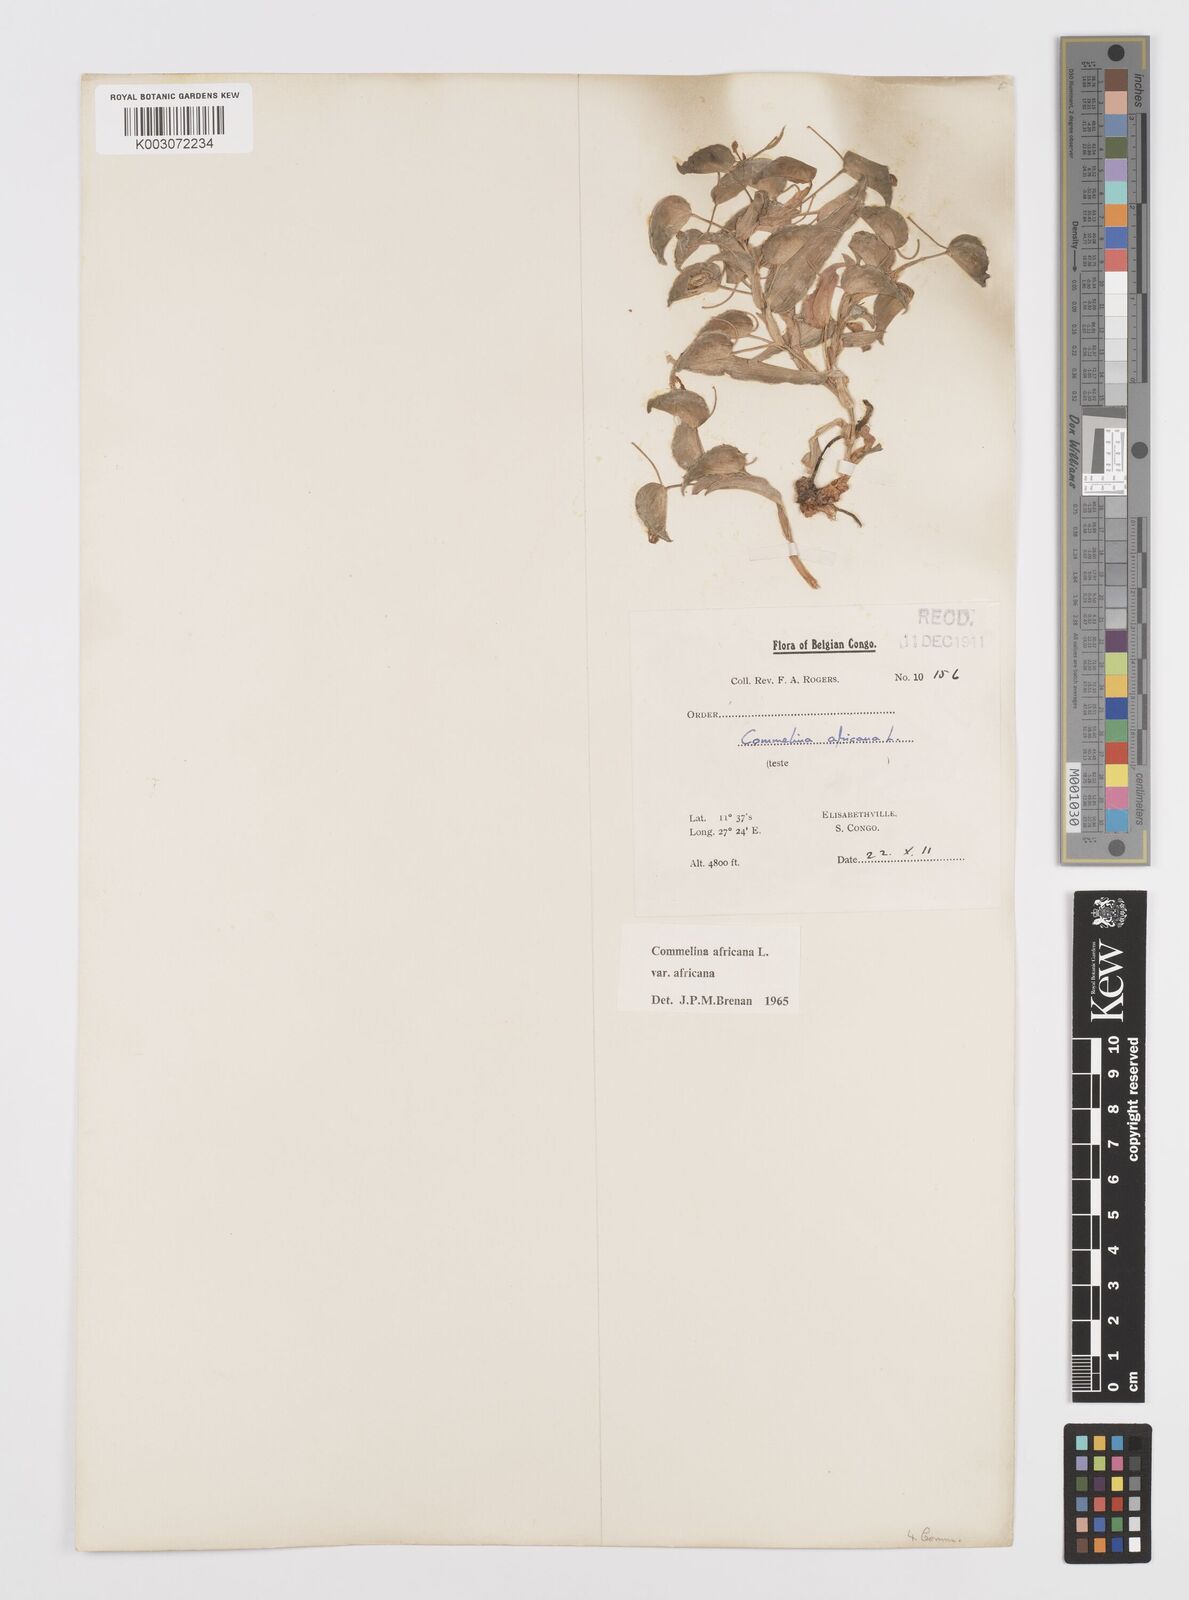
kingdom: Plantae
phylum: Tracheophyta
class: Liliopsida
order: Commelinales
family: Commelinaceae
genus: Commelina
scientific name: Commelina africana
